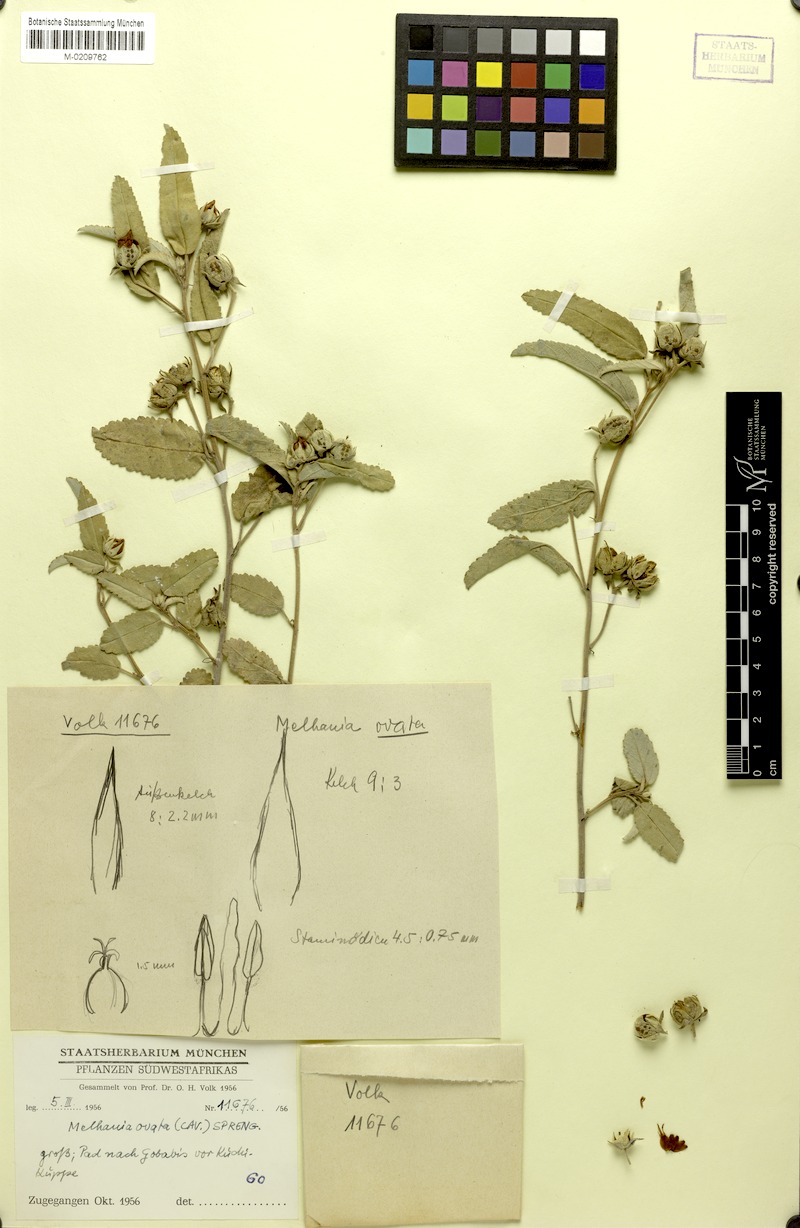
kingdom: Plantae
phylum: Tracheophyta
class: Magnoliopsida
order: Malvales
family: Malvaceae
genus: Melhania
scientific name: Melhania ovata
